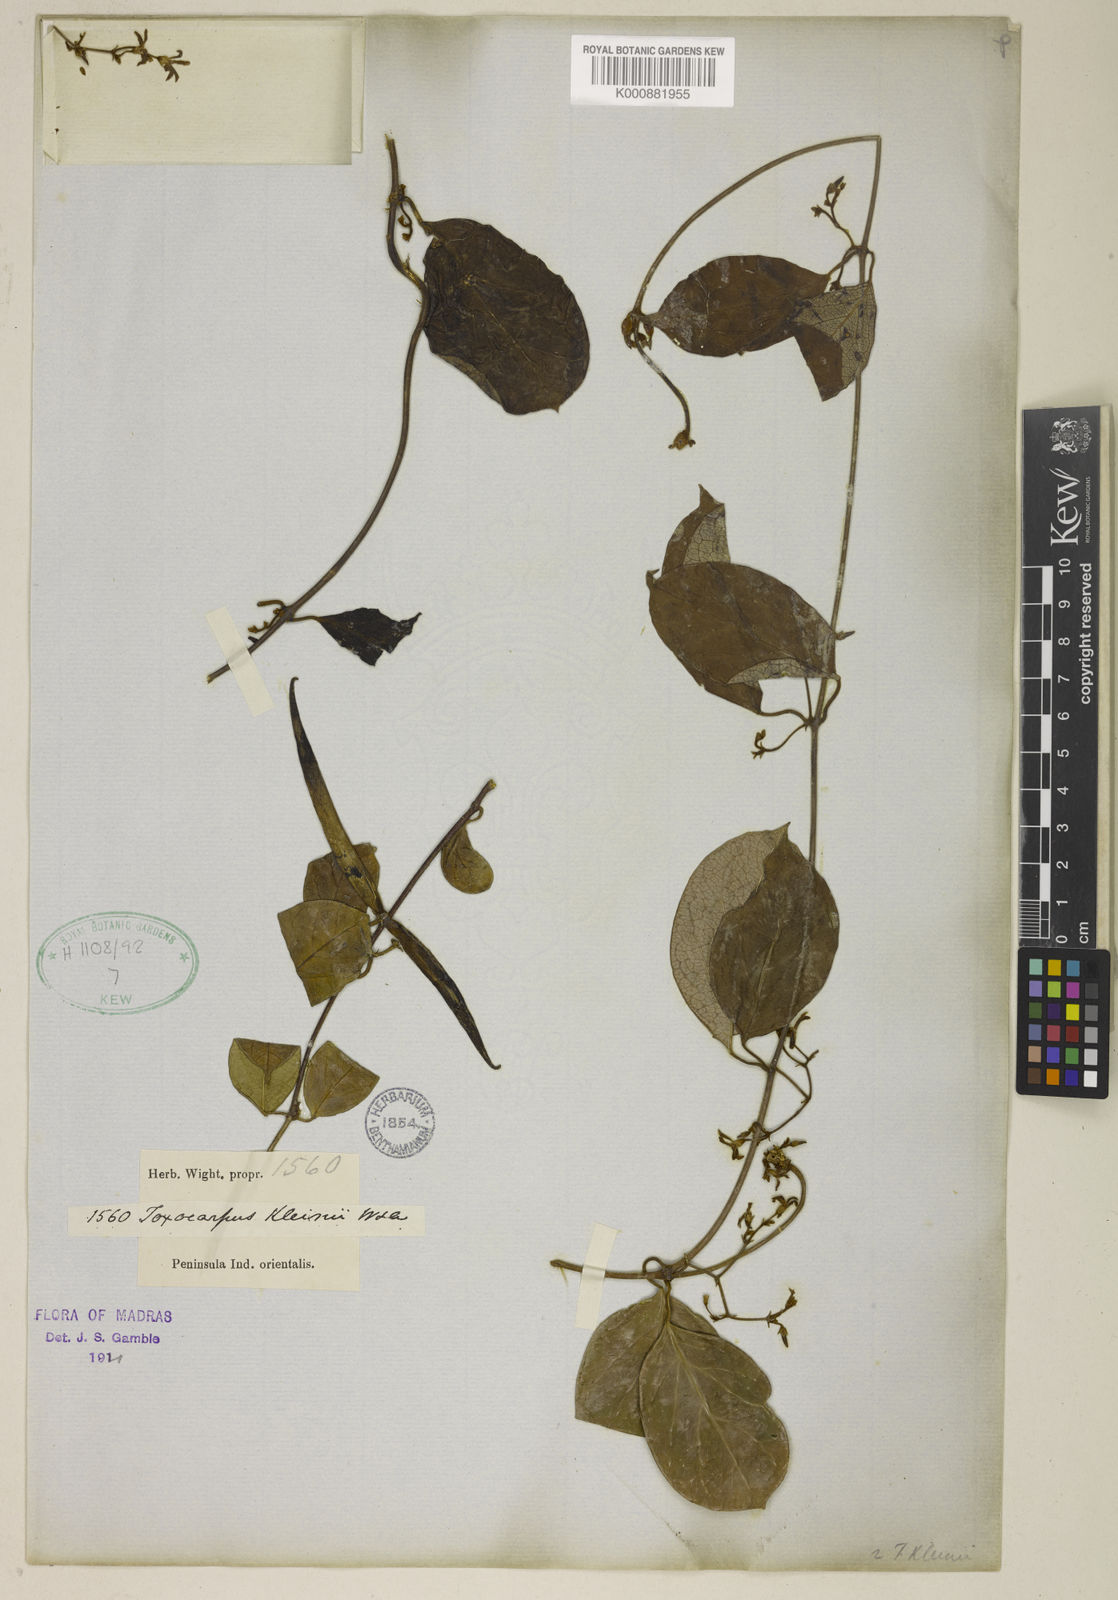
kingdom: Plantae
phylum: Tracheophyta
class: Magnoliopsida
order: Gentianales
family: Apocynaceae
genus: Toxocarpus
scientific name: Toxocarpus kleinii
